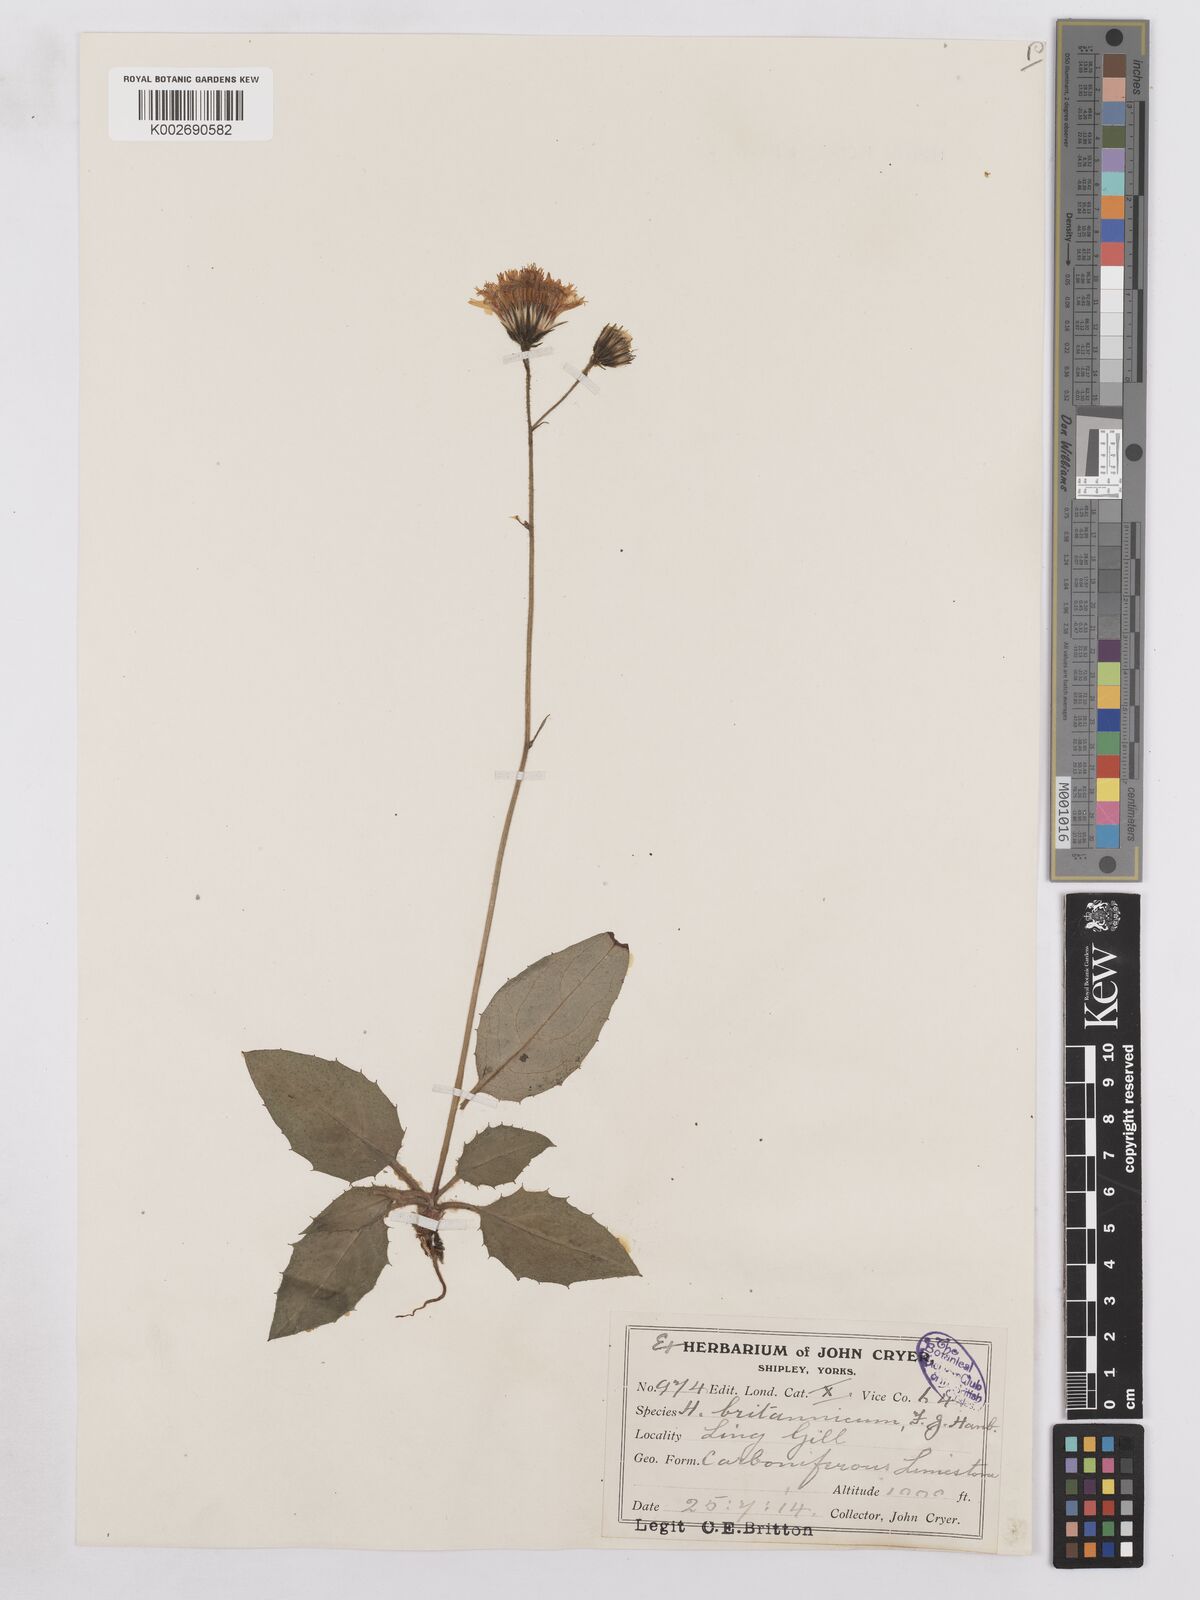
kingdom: Plantae
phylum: Tracheophyta
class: Magnoliopsida
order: Asterales
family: Asteraceae
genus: Hieracium
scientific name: Hieracium britannicum
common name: British hawkweed
